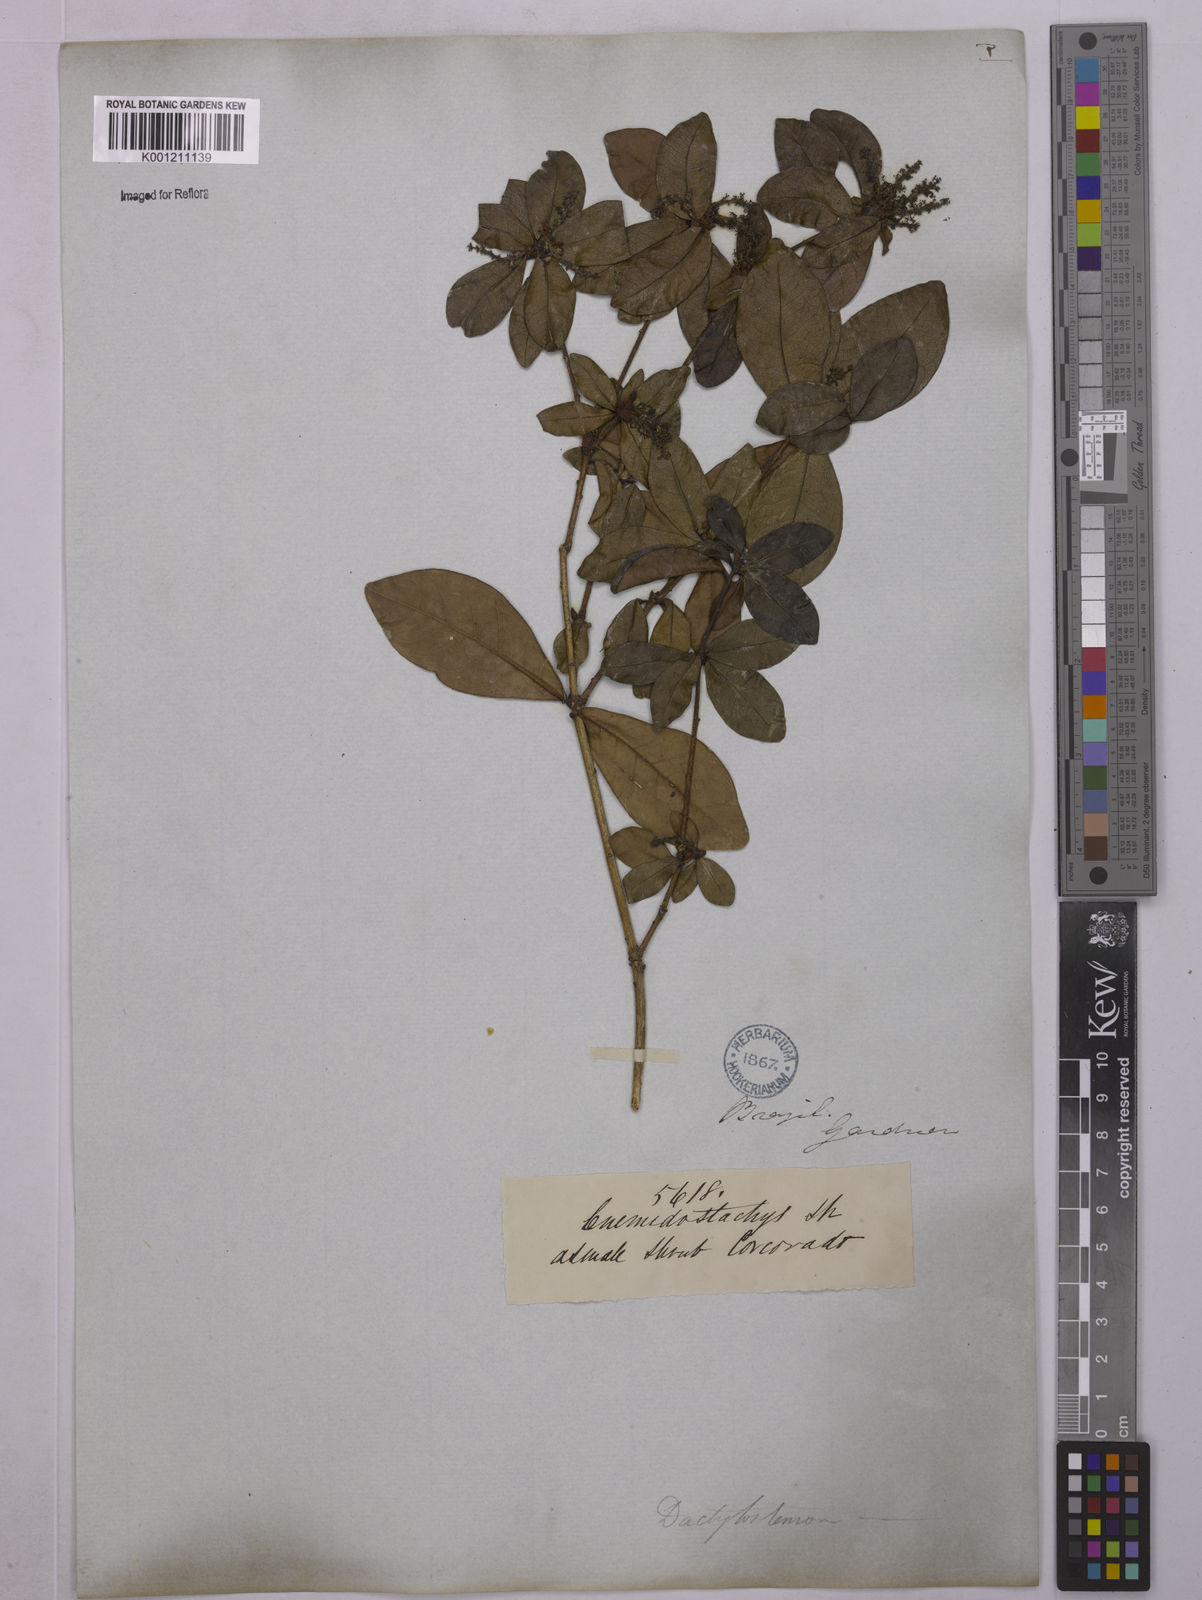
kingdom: Plantae
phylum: Tracheophyta
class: Magnoliopsida
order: Malpighiales
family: Euphorbiaceae
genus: Actinostemon
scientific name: Actinostemon verticillatus
